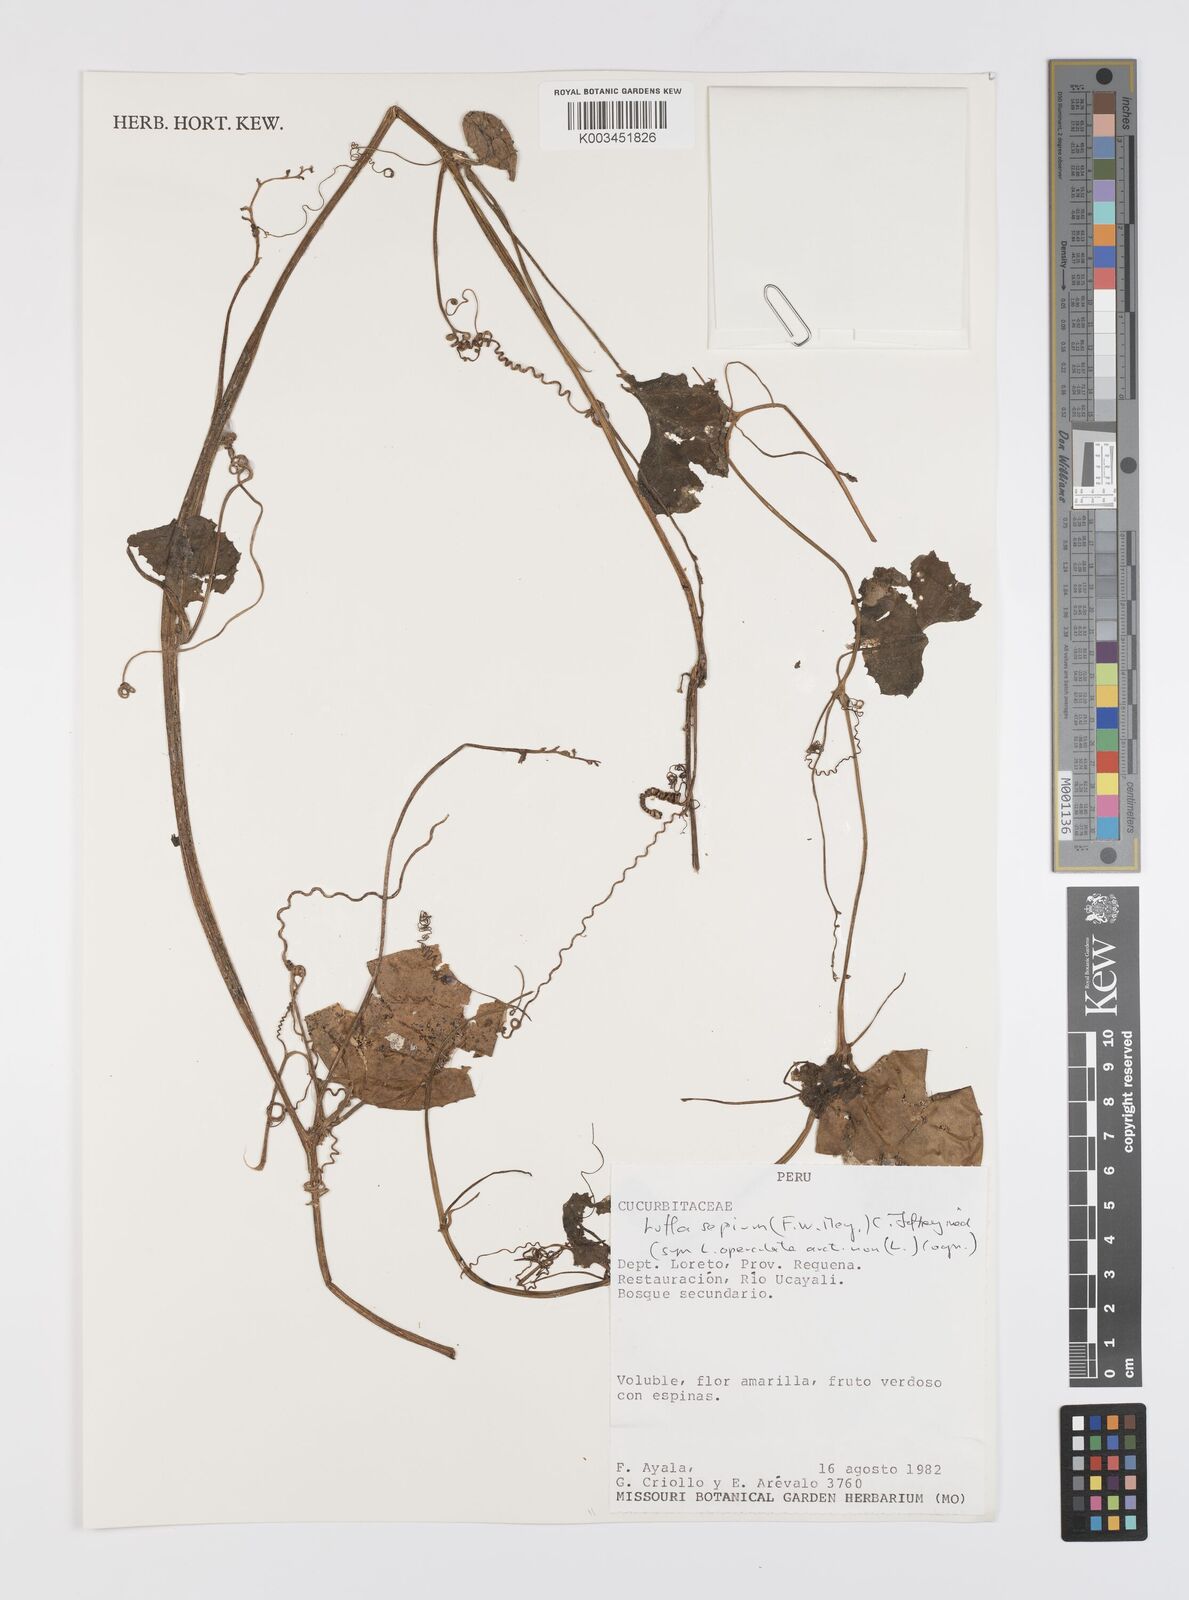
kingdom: Plantae
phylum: Tracheophyta
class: Magnoliopsida
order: Cucurbitales
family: Cucurbitaceae
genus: Luffa
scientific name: Luffa sepium
